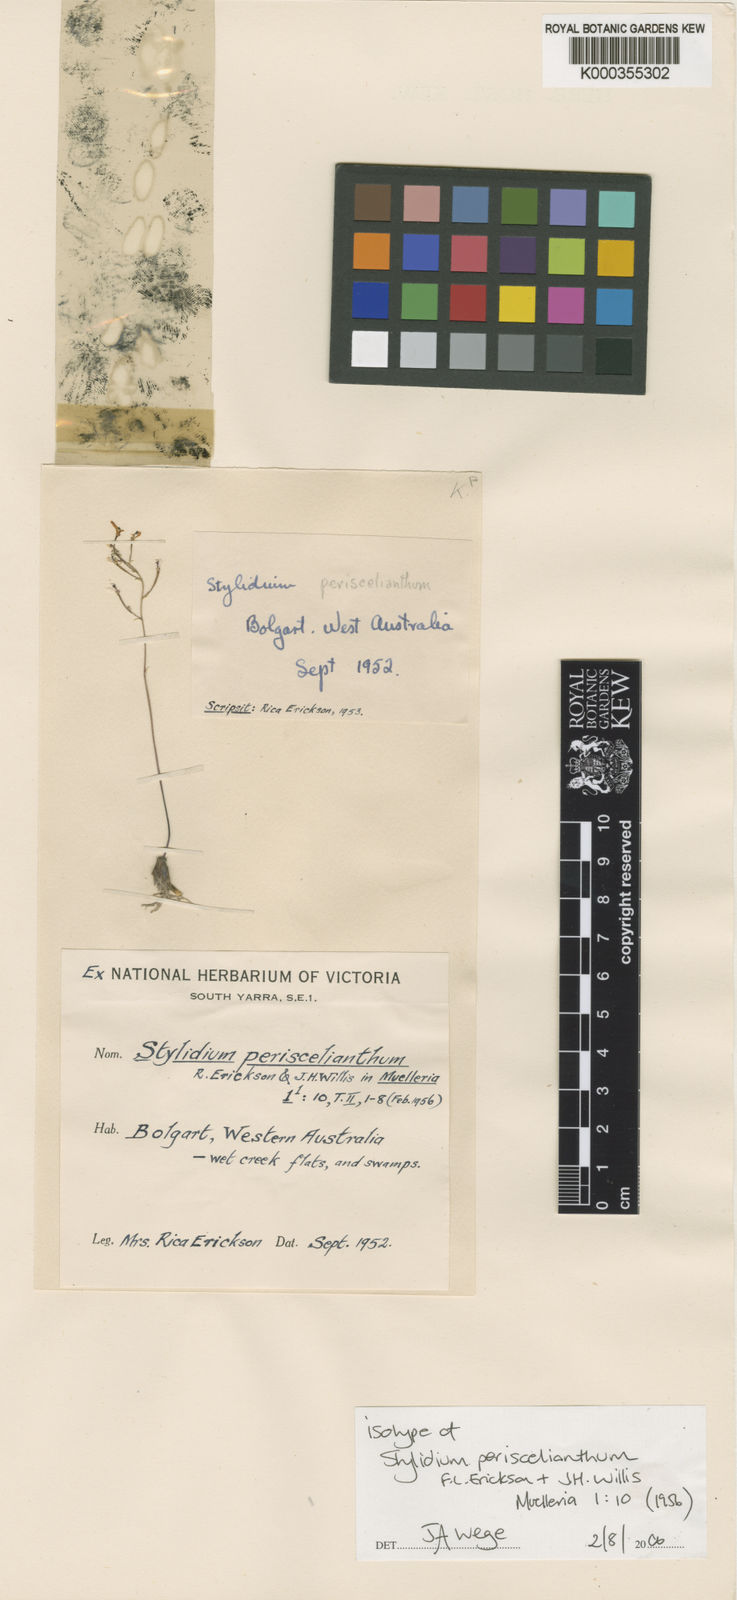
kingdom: Plantae
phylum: Tracheophyta
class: Magnoliopsida
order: Asterales
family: Stylidiaceae
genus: Stylidium
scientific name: Stylidium periscelianthum
